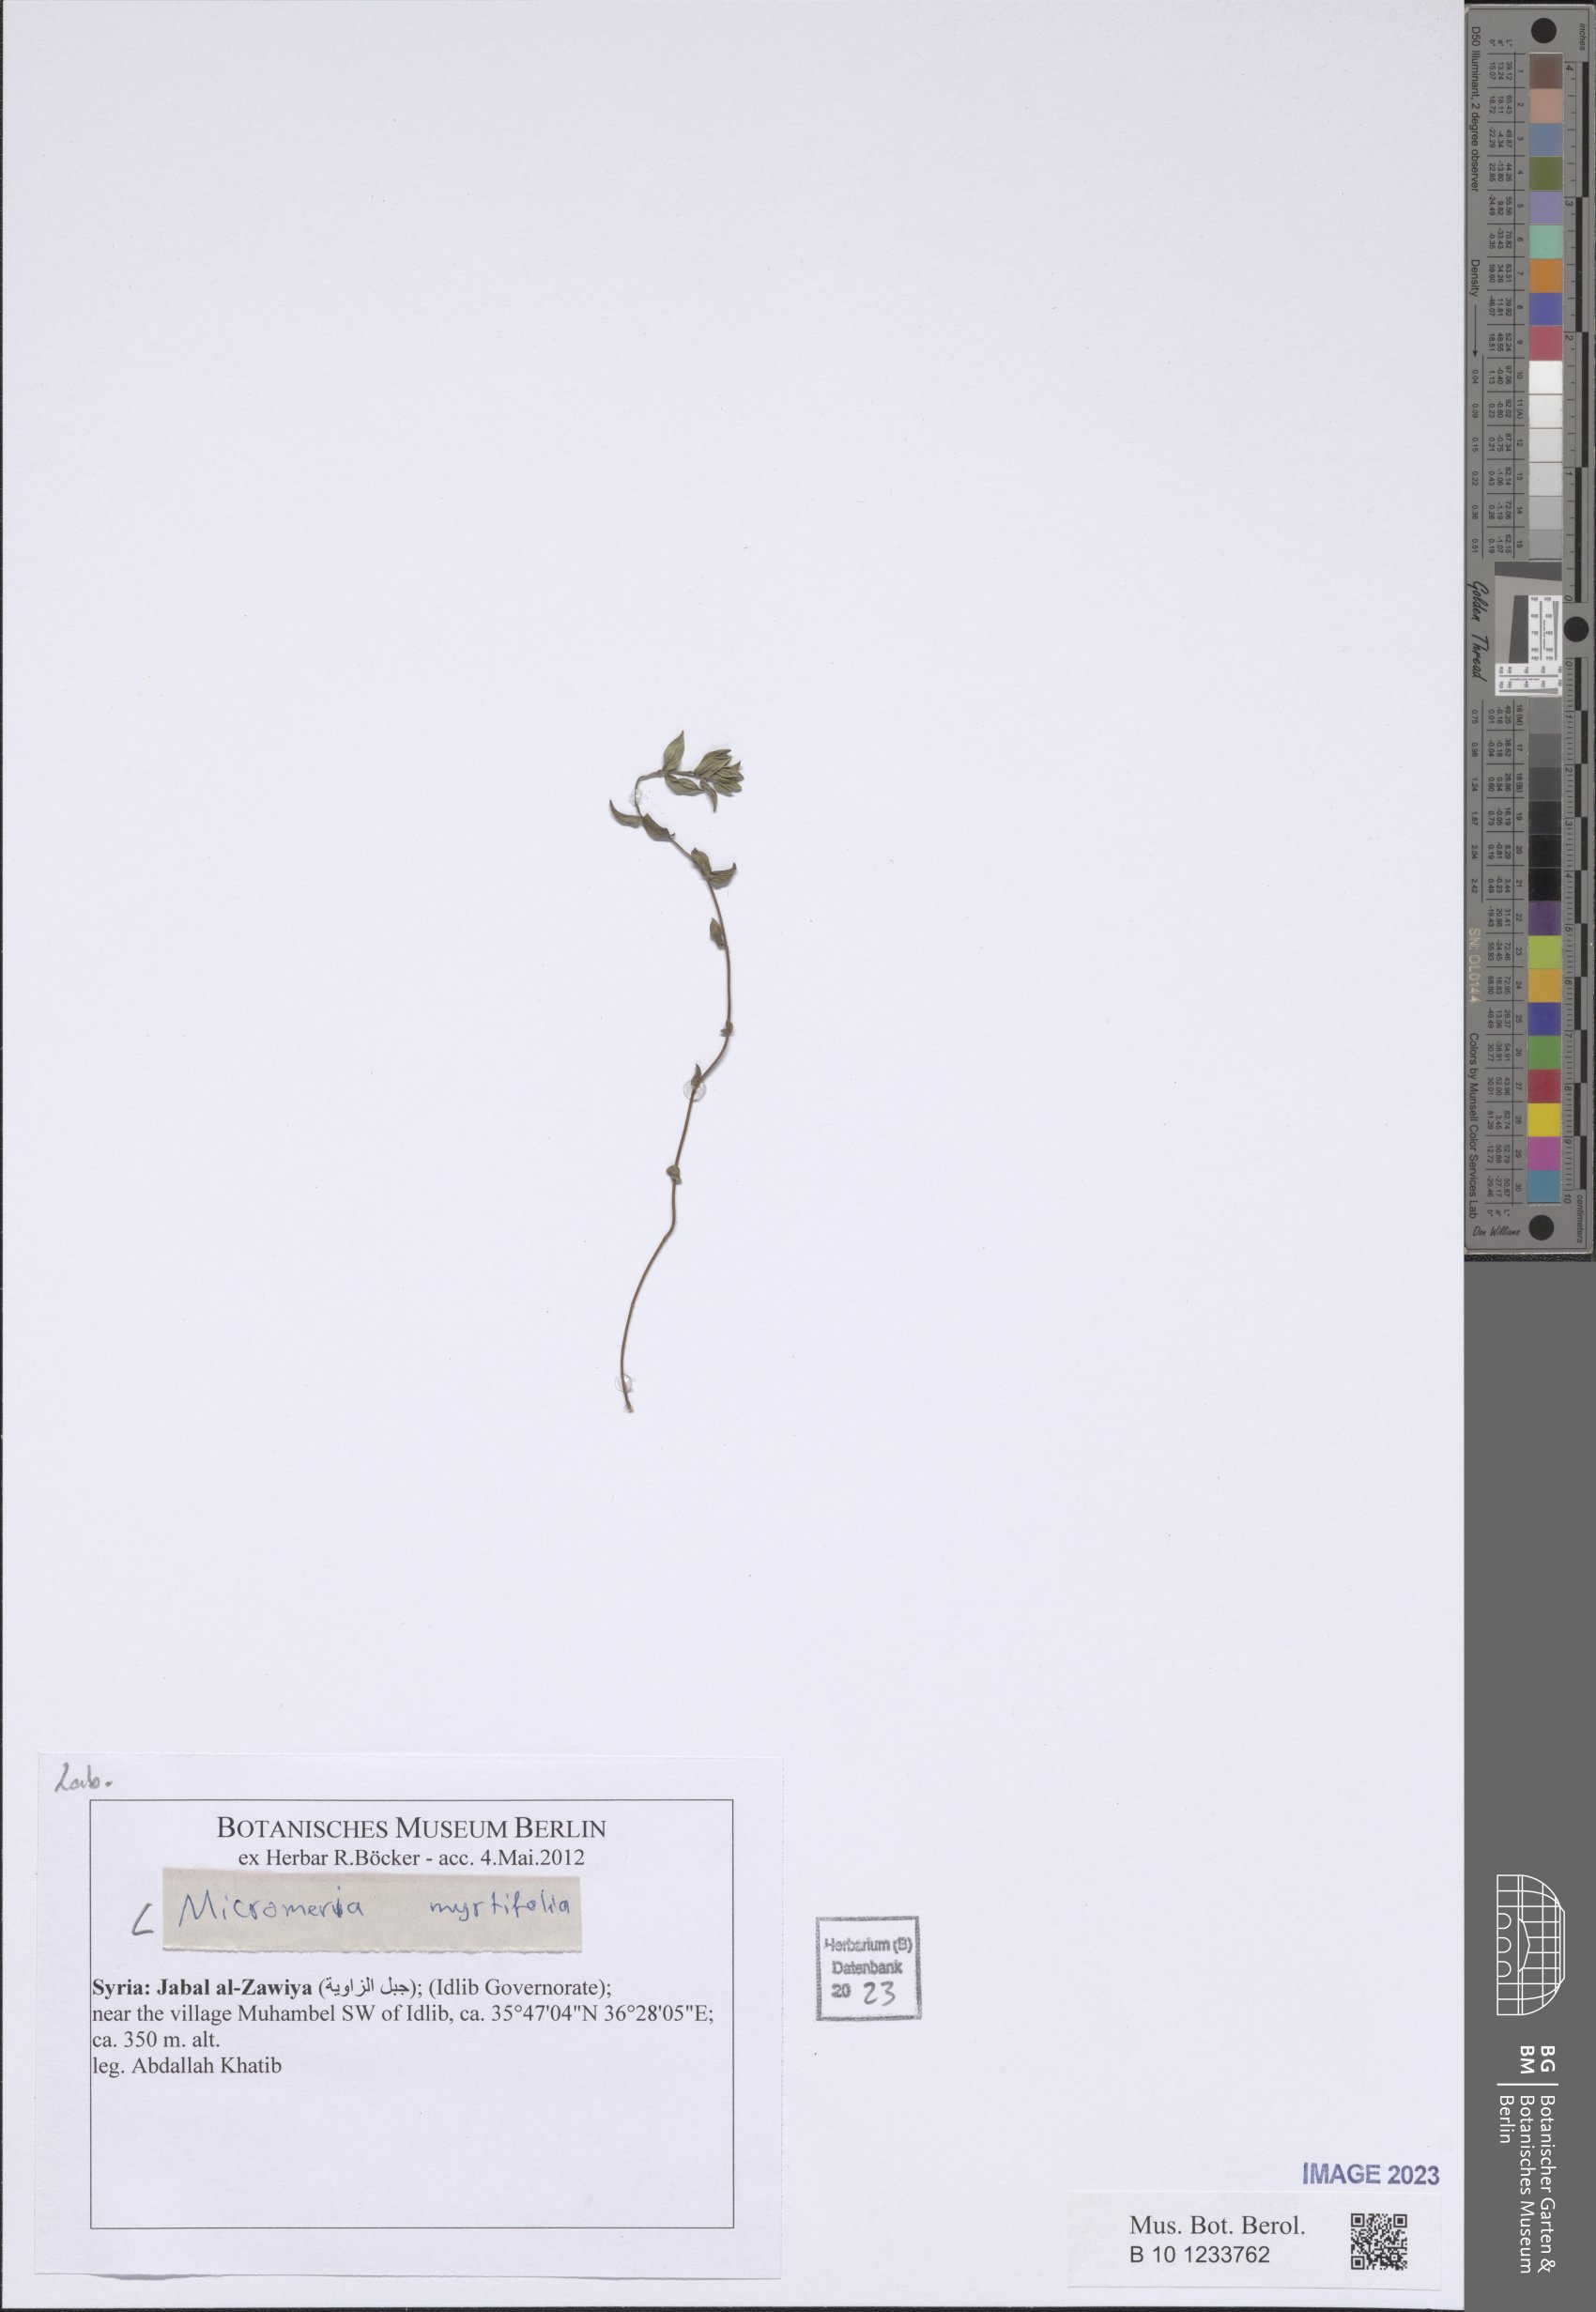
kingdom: Plantae
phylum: Tracheophyta
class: Magnoliopsida
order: Lamiales
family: Lamiaceae
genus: Micromeria
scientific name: Micromeria myrtifolia
